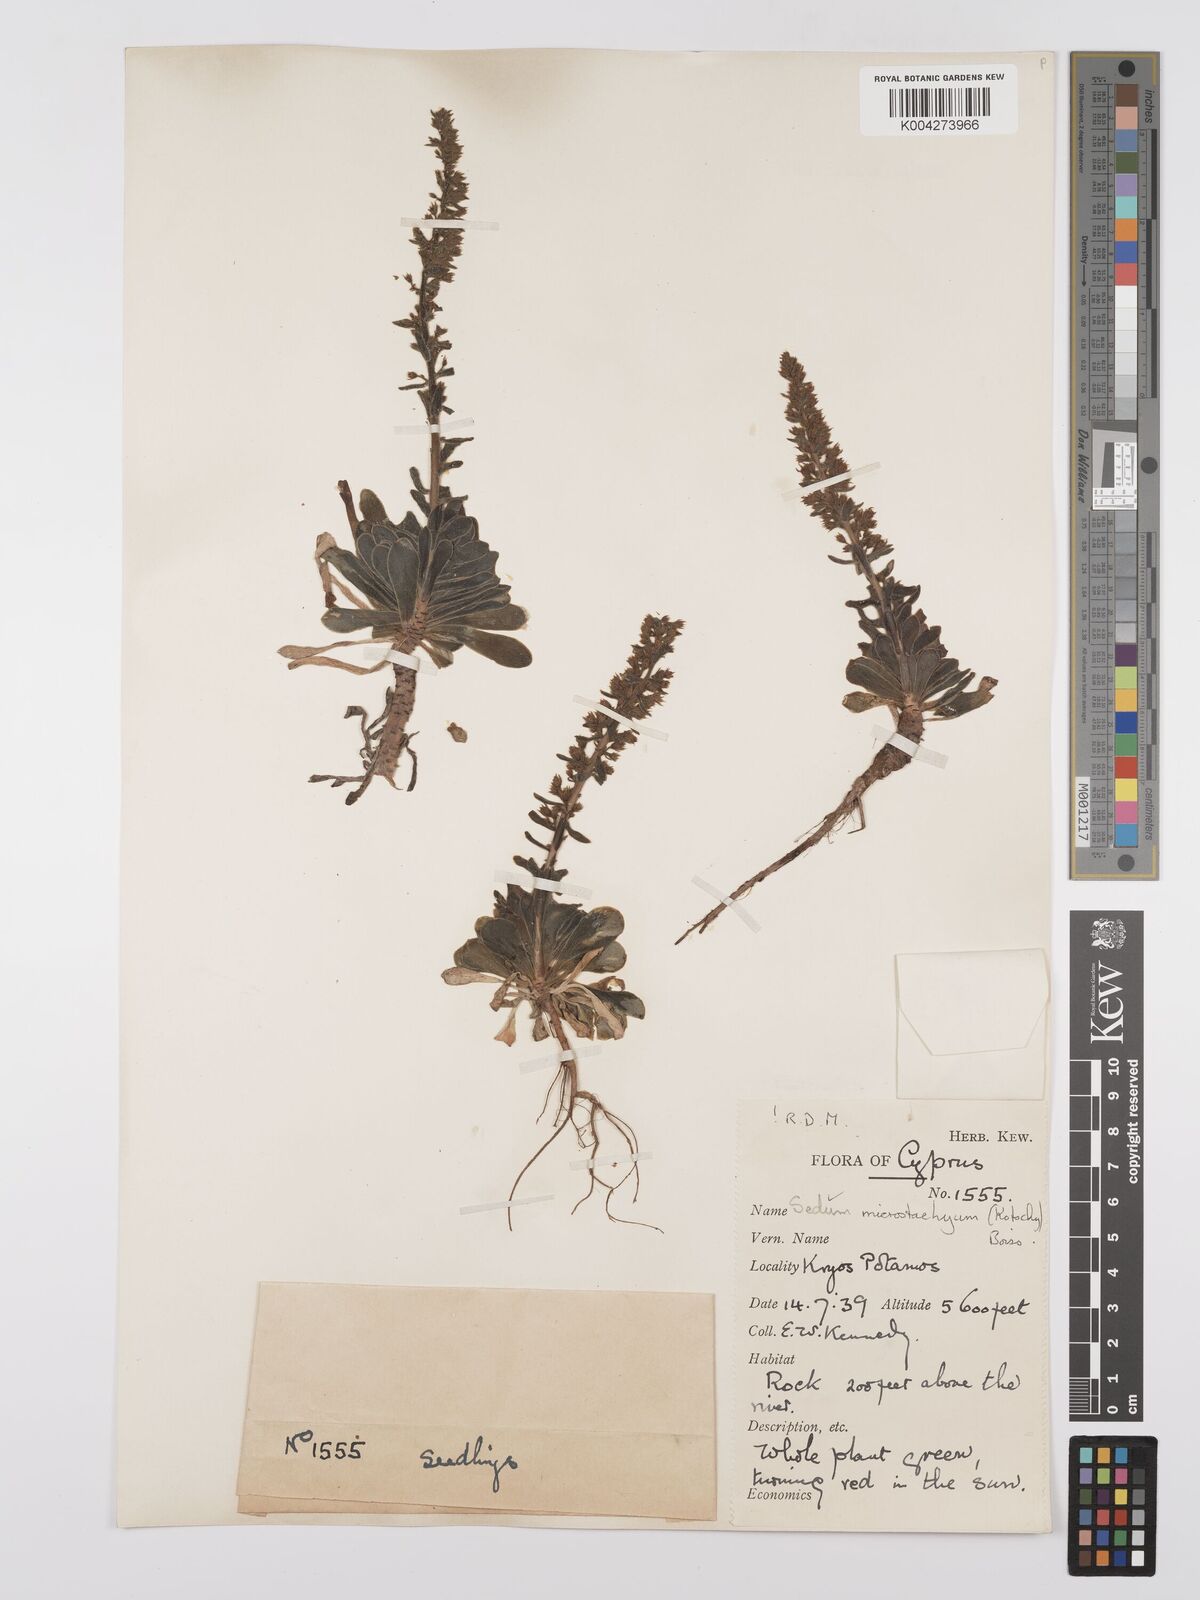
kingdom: Plantae
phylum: Tracheophyta
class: Magnoliopsida
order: Saxifragales
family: Crassulaceae
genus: Sedum
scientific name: Sedum microstachyum
